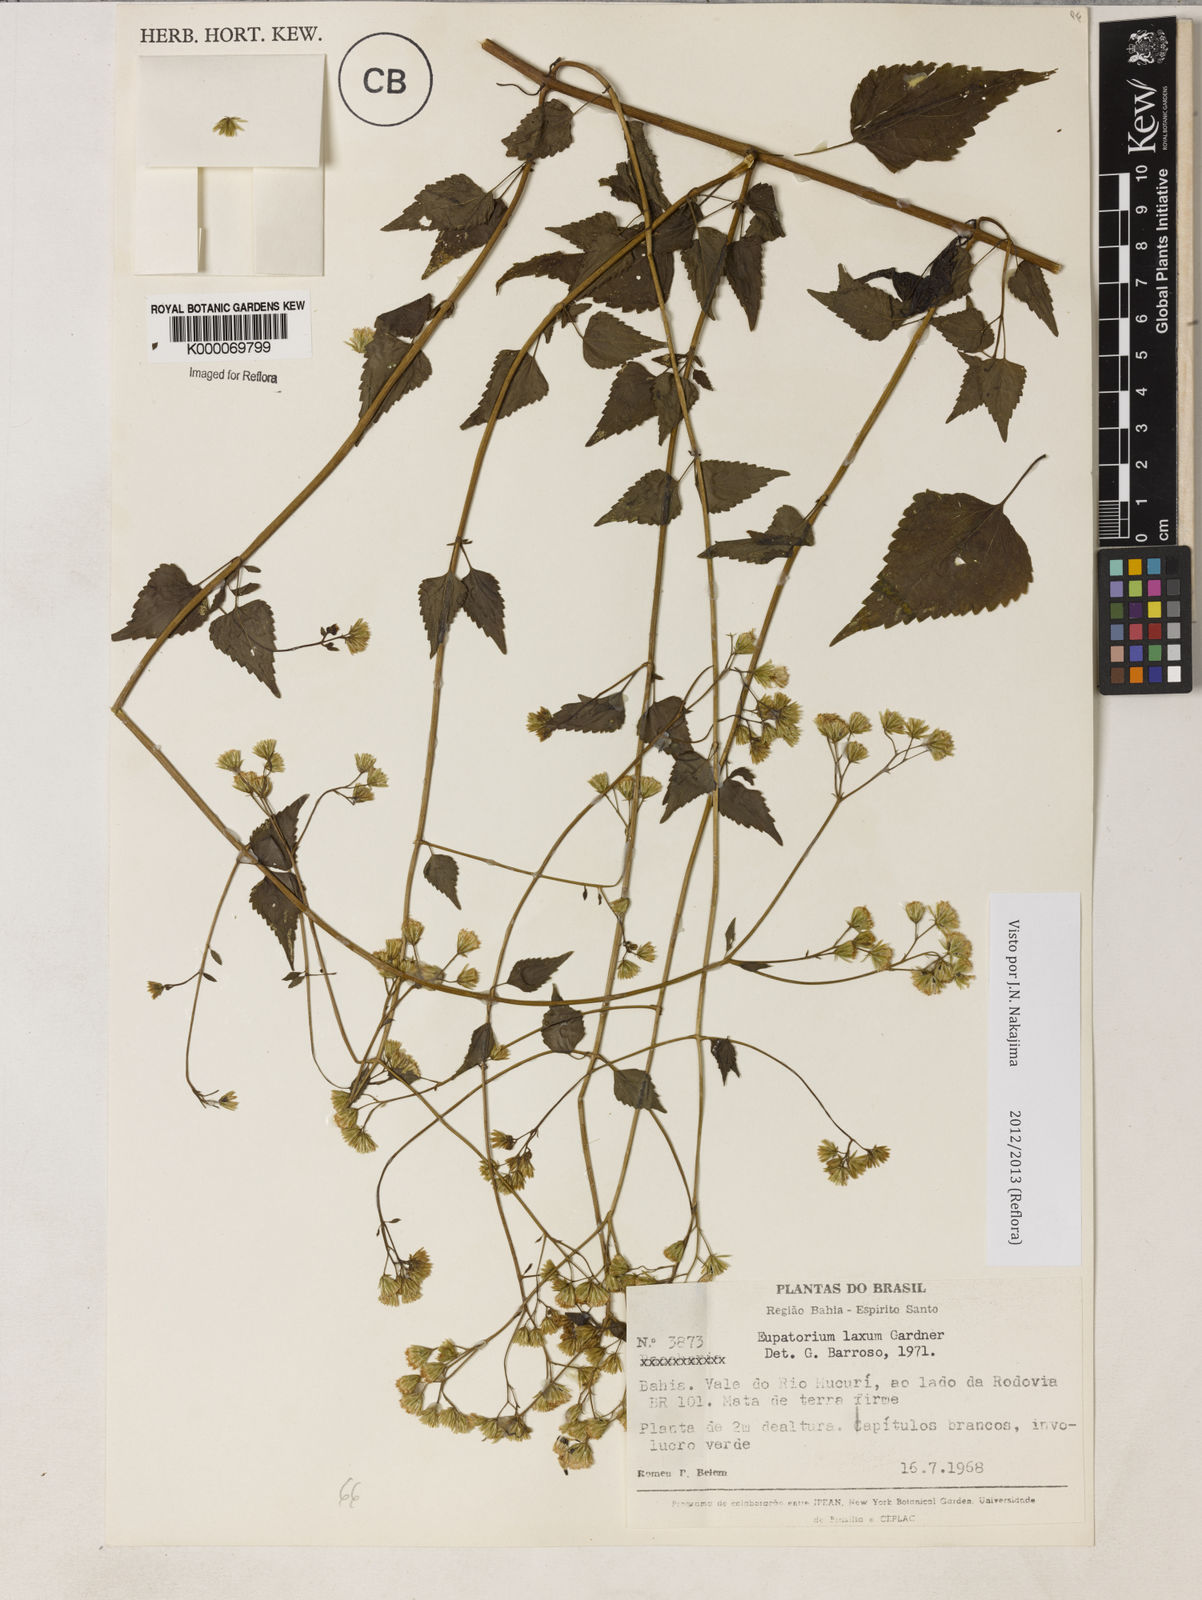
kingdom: Plantae
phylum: Tracheophyta
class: Magnoliopsida
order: Asterales
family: Asteraceae
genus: Fleischmannia
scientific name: Fleischmannia laxa
